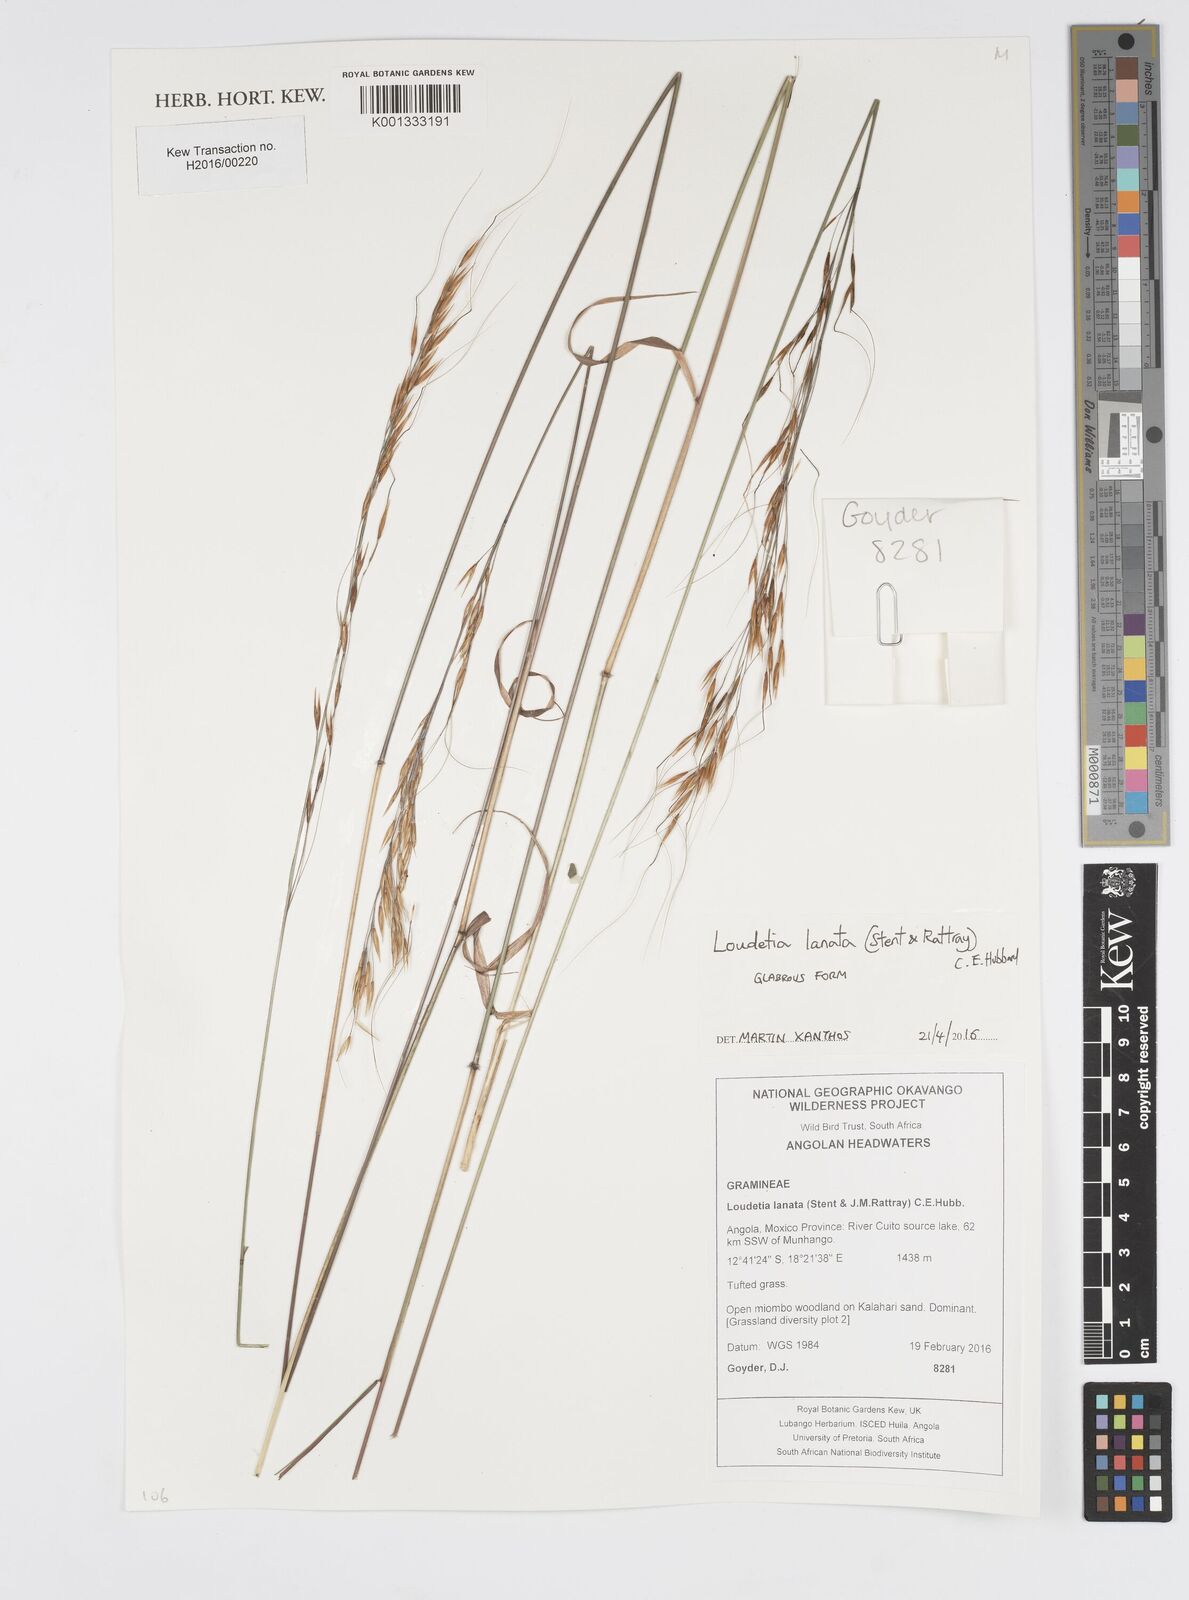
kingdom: Plantae
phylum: Tracheophyta
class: Liliopsida
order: Poales
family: Poaceae
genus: Loudetia
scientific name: Loudetia lanata
